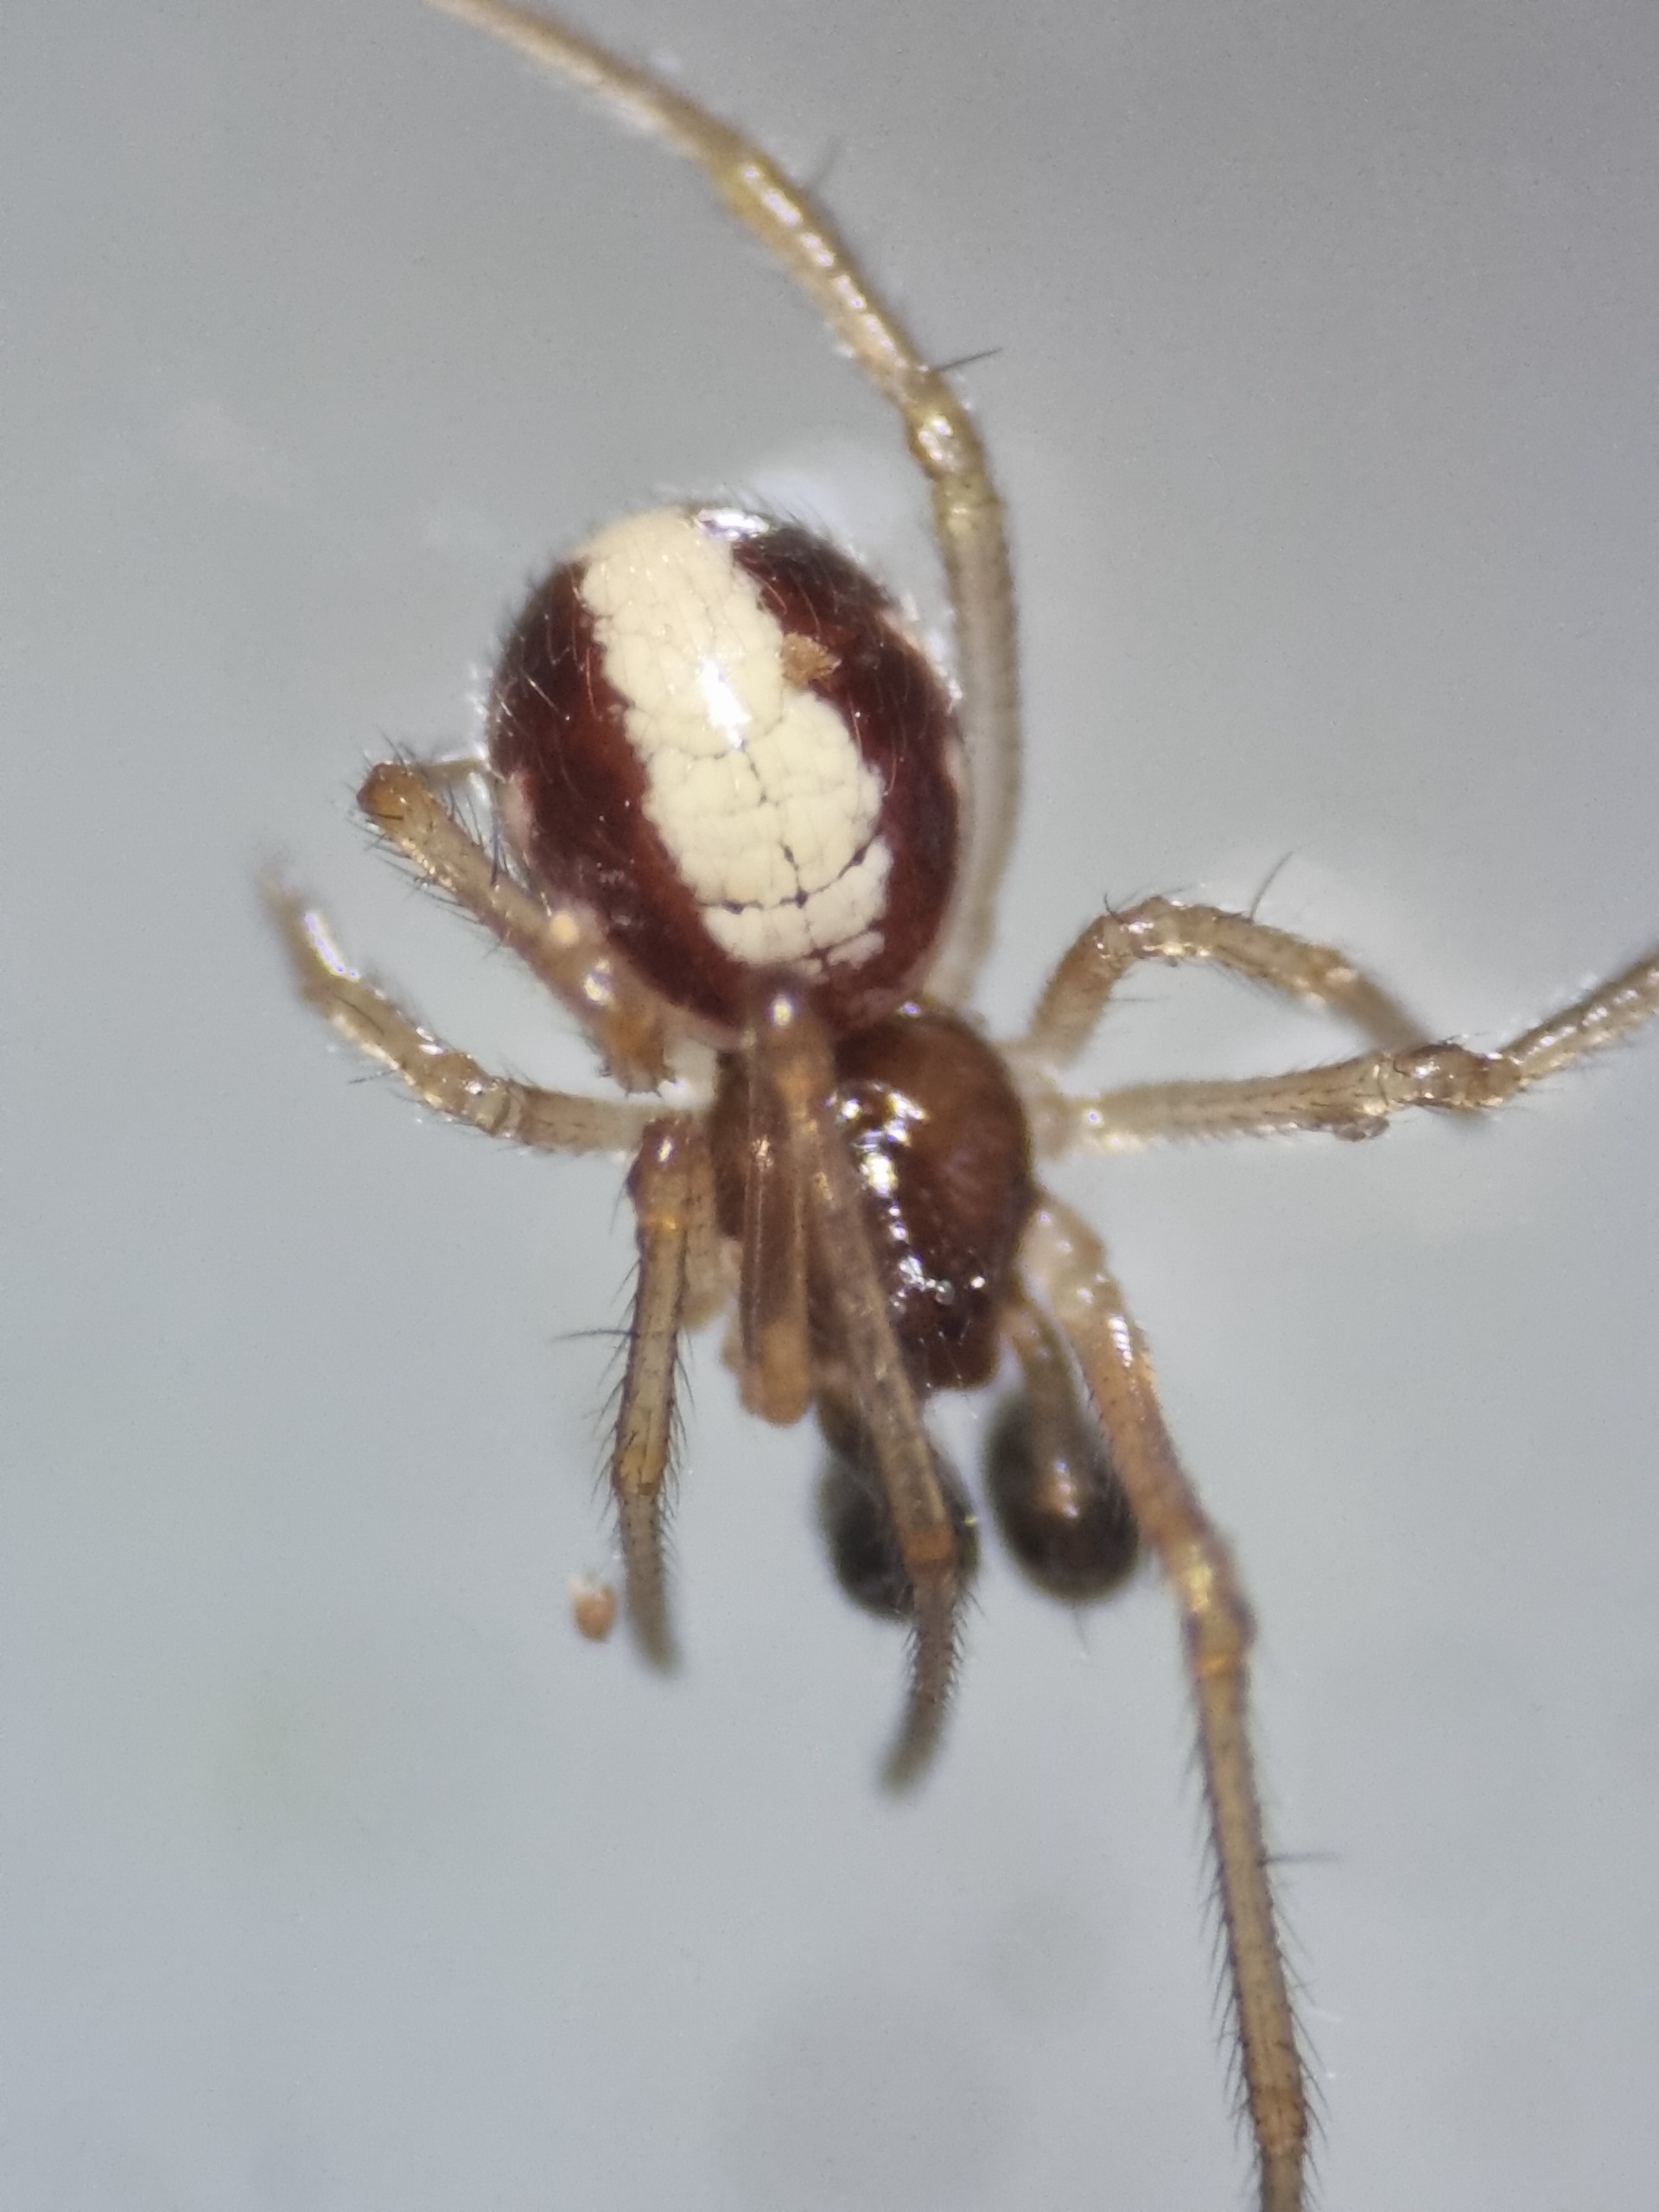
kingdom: Animalia
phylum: Arthropoda
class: Arachnida
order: Araneae
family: Theridiidae
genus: Neottiura
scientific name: Neottiura bimaculata
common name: Æggebæreren
